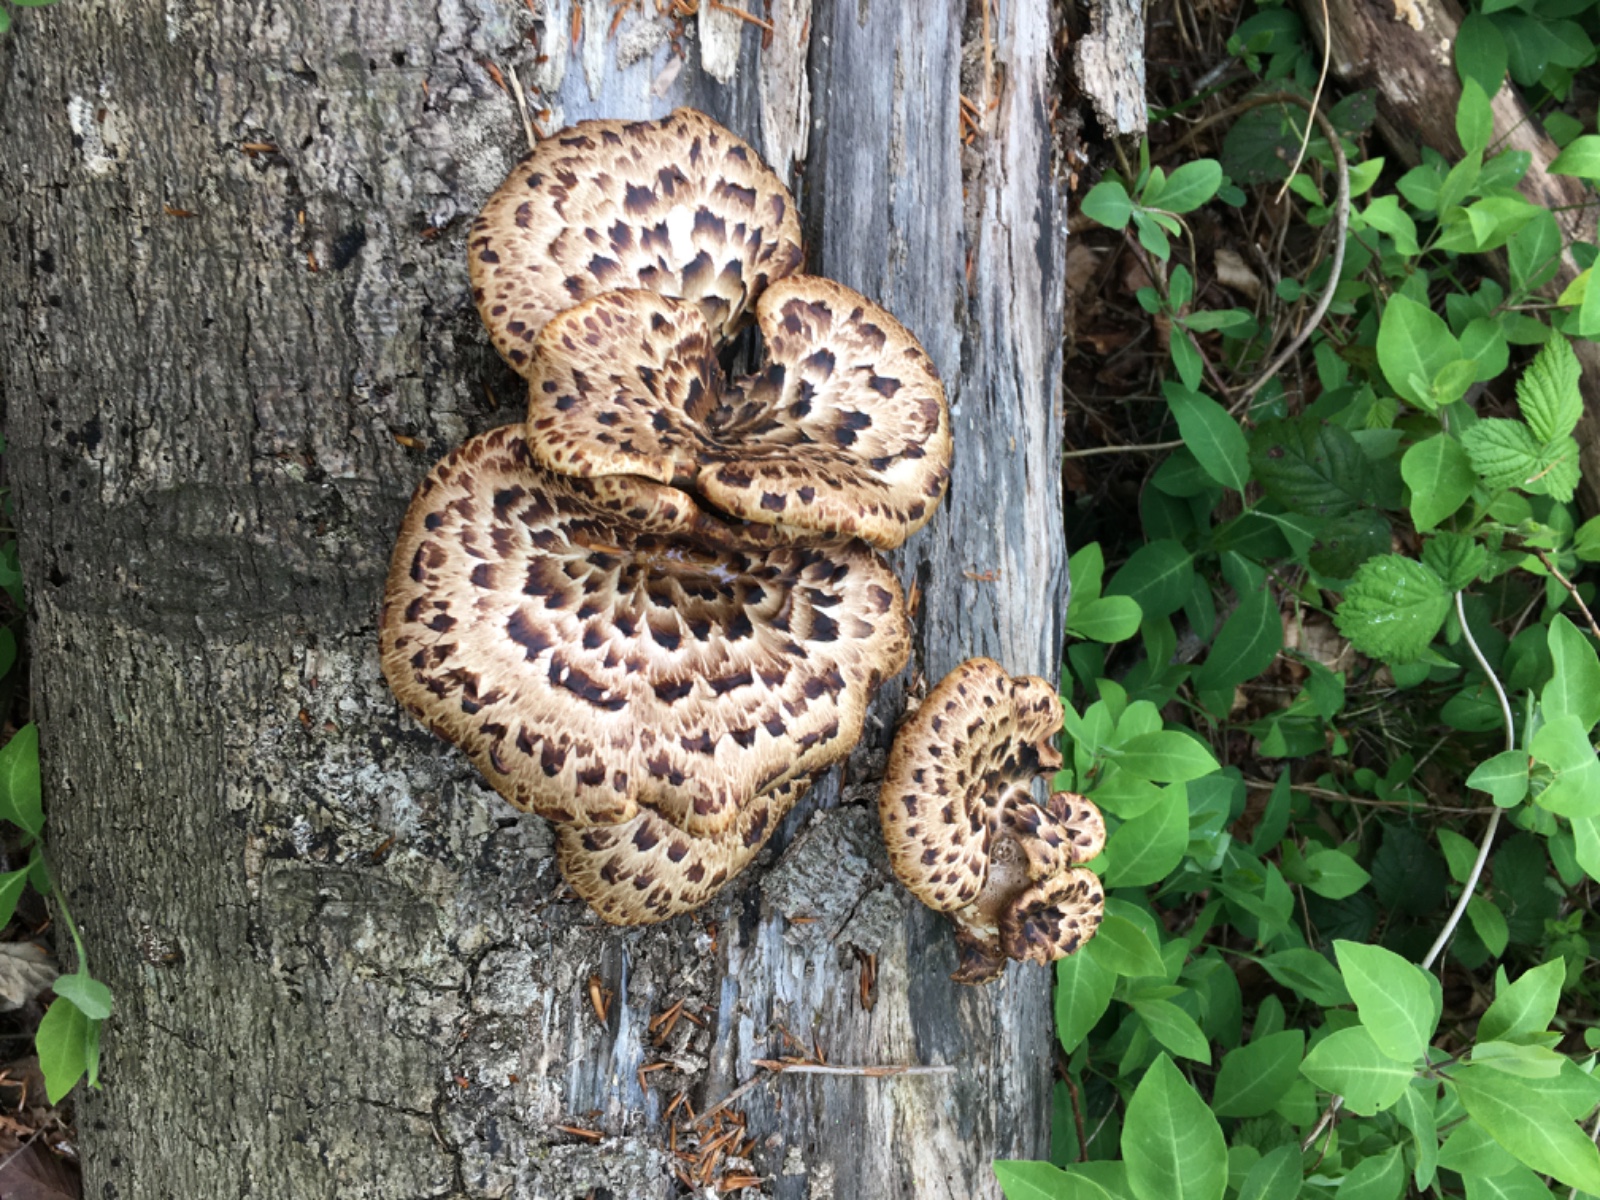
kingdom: Fungi
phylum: Basidiomycota
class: Agaricomycetes
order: Polyporales
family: Polyporaceae
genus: Cerioporus
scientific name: Cerioporus squamosus
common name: skællet stilkporesvamp
